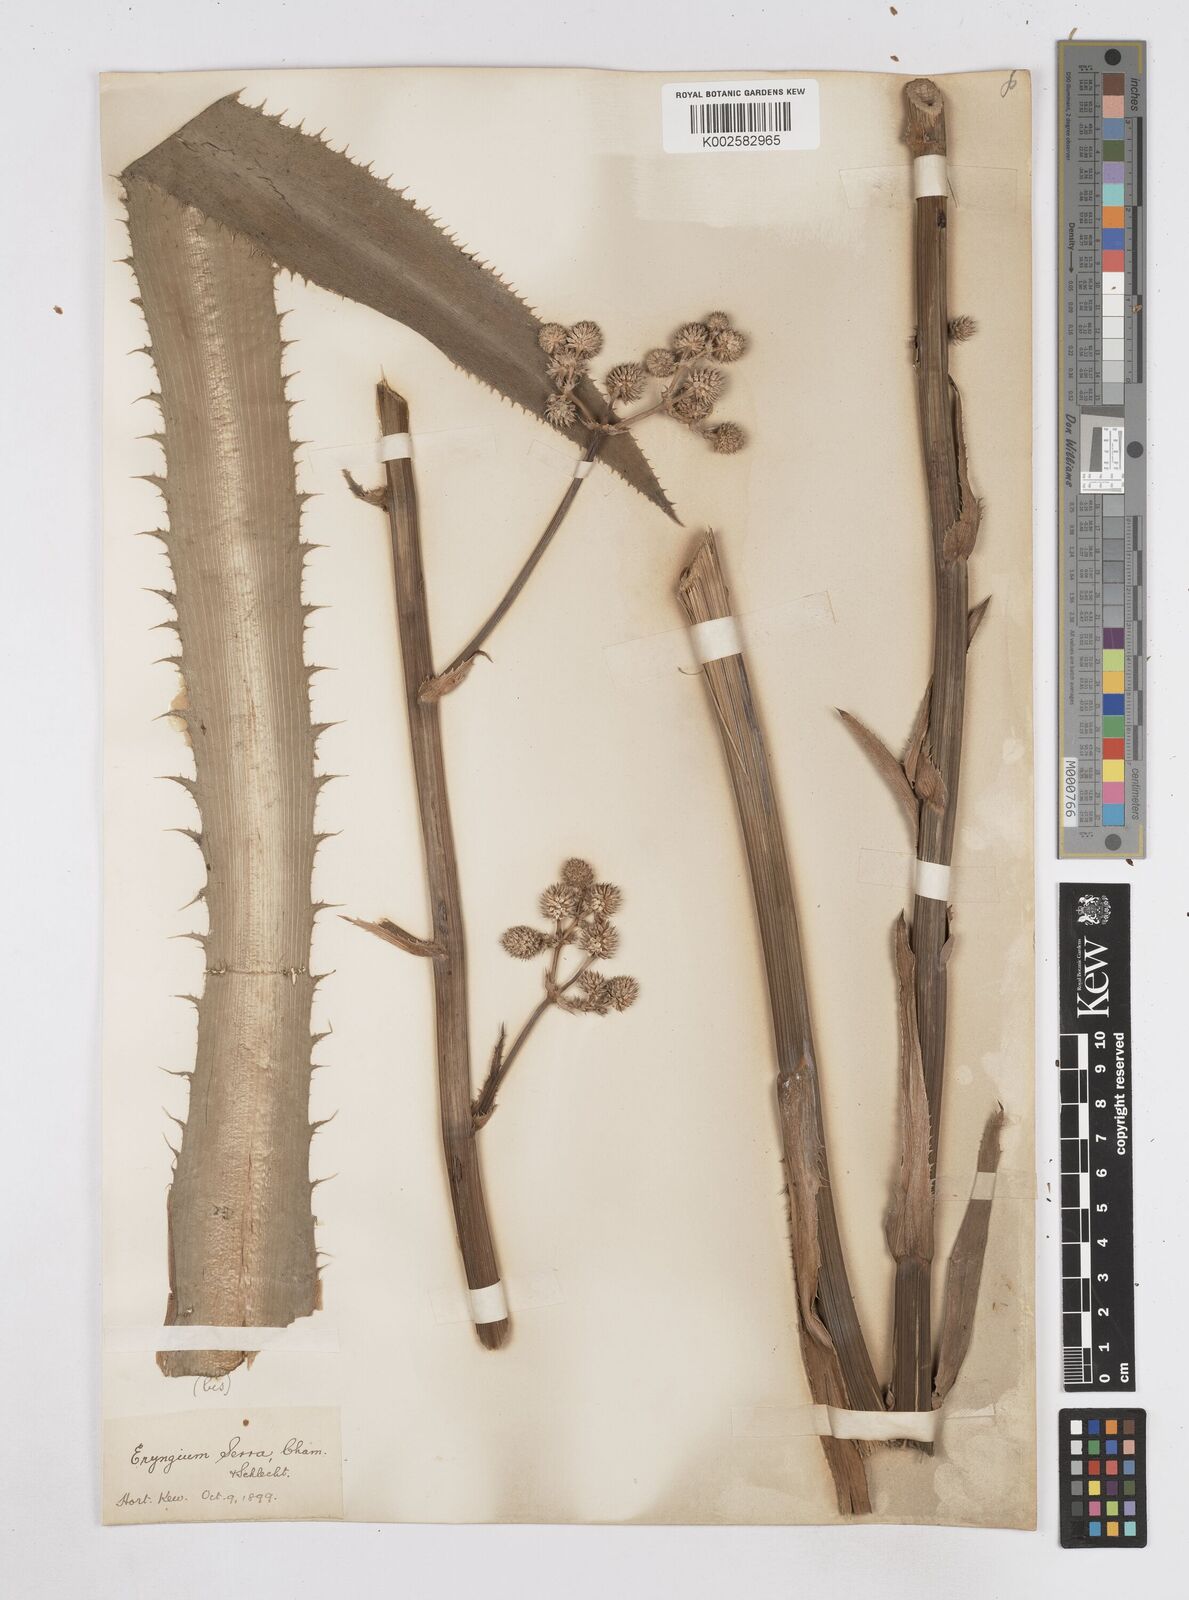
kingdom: Plantae
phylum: Tracheophyta
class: Magnoliopsida
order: Apiales
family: Apiaceae
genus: Eryngium
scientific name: Eryngium serra
